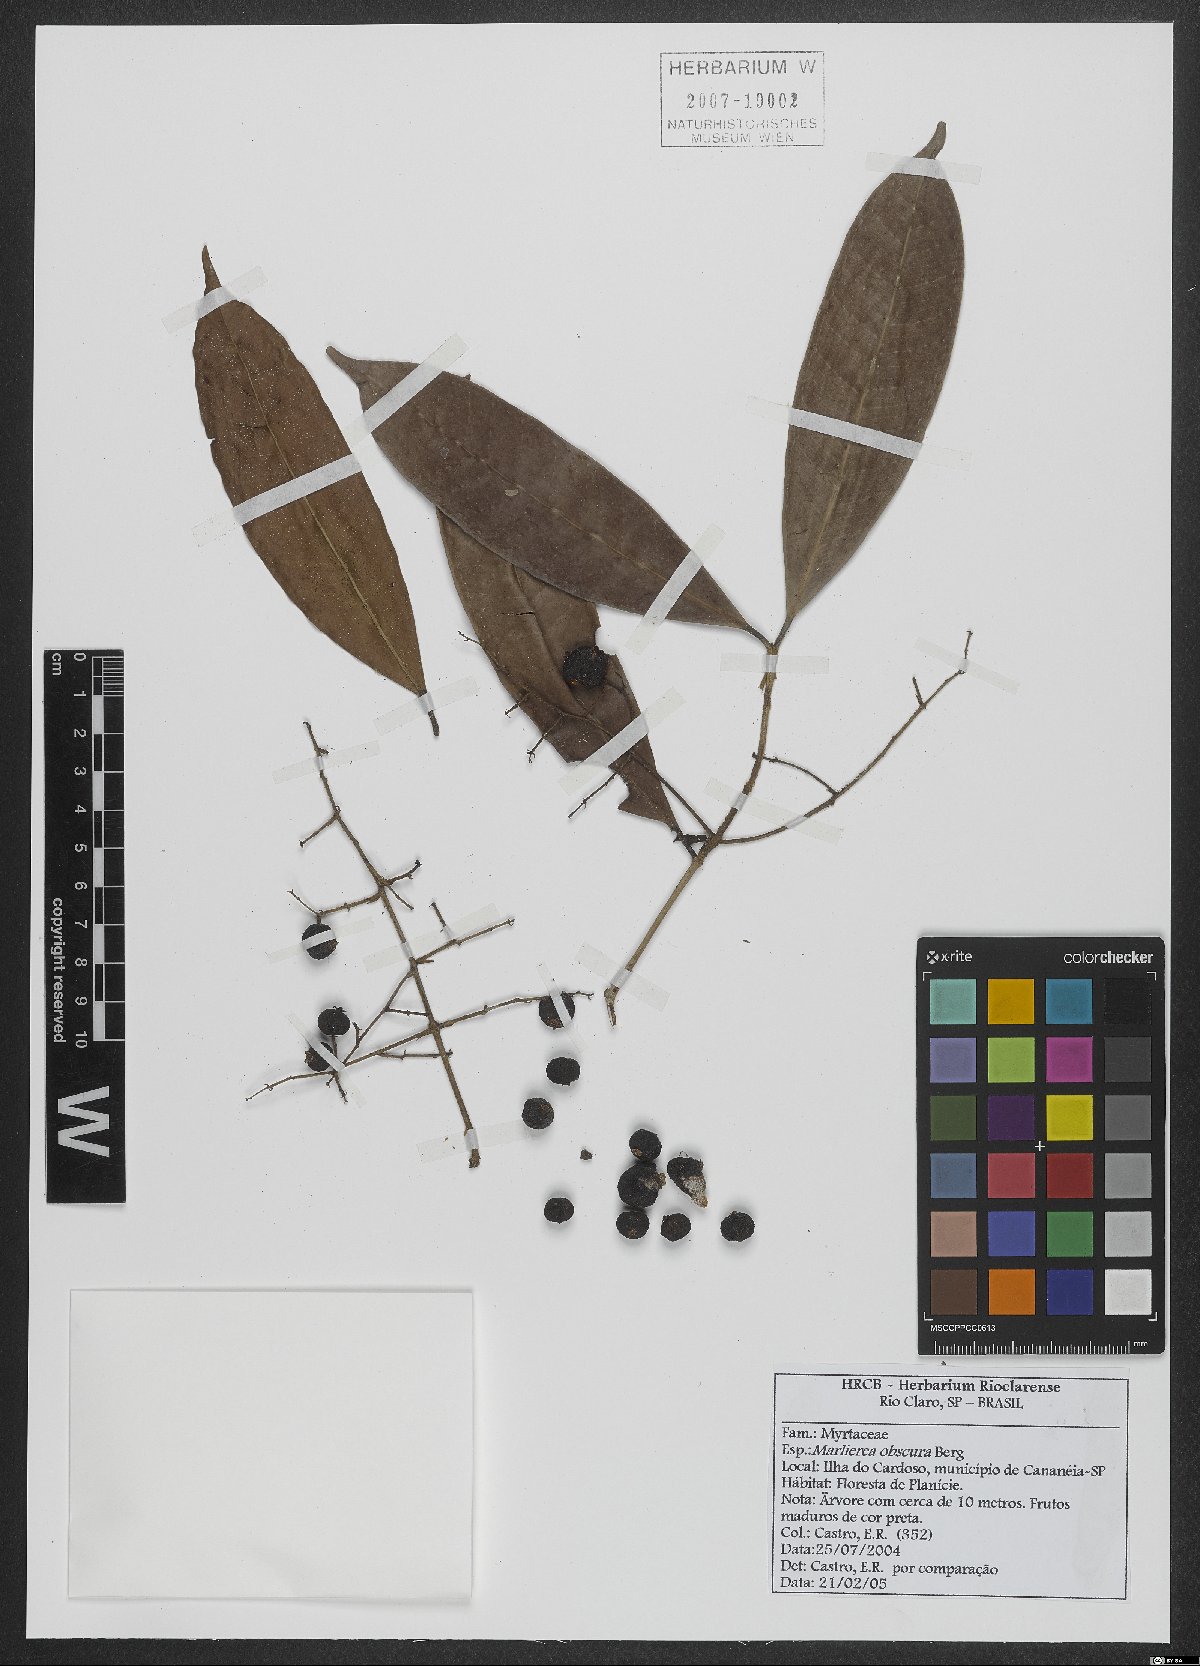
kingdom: Plantae
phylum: Tracheophyta
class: Magnoliopsida
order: Myrtales
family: Myrtaceae
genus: Myrcia
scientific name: Myrcia neoobscura
